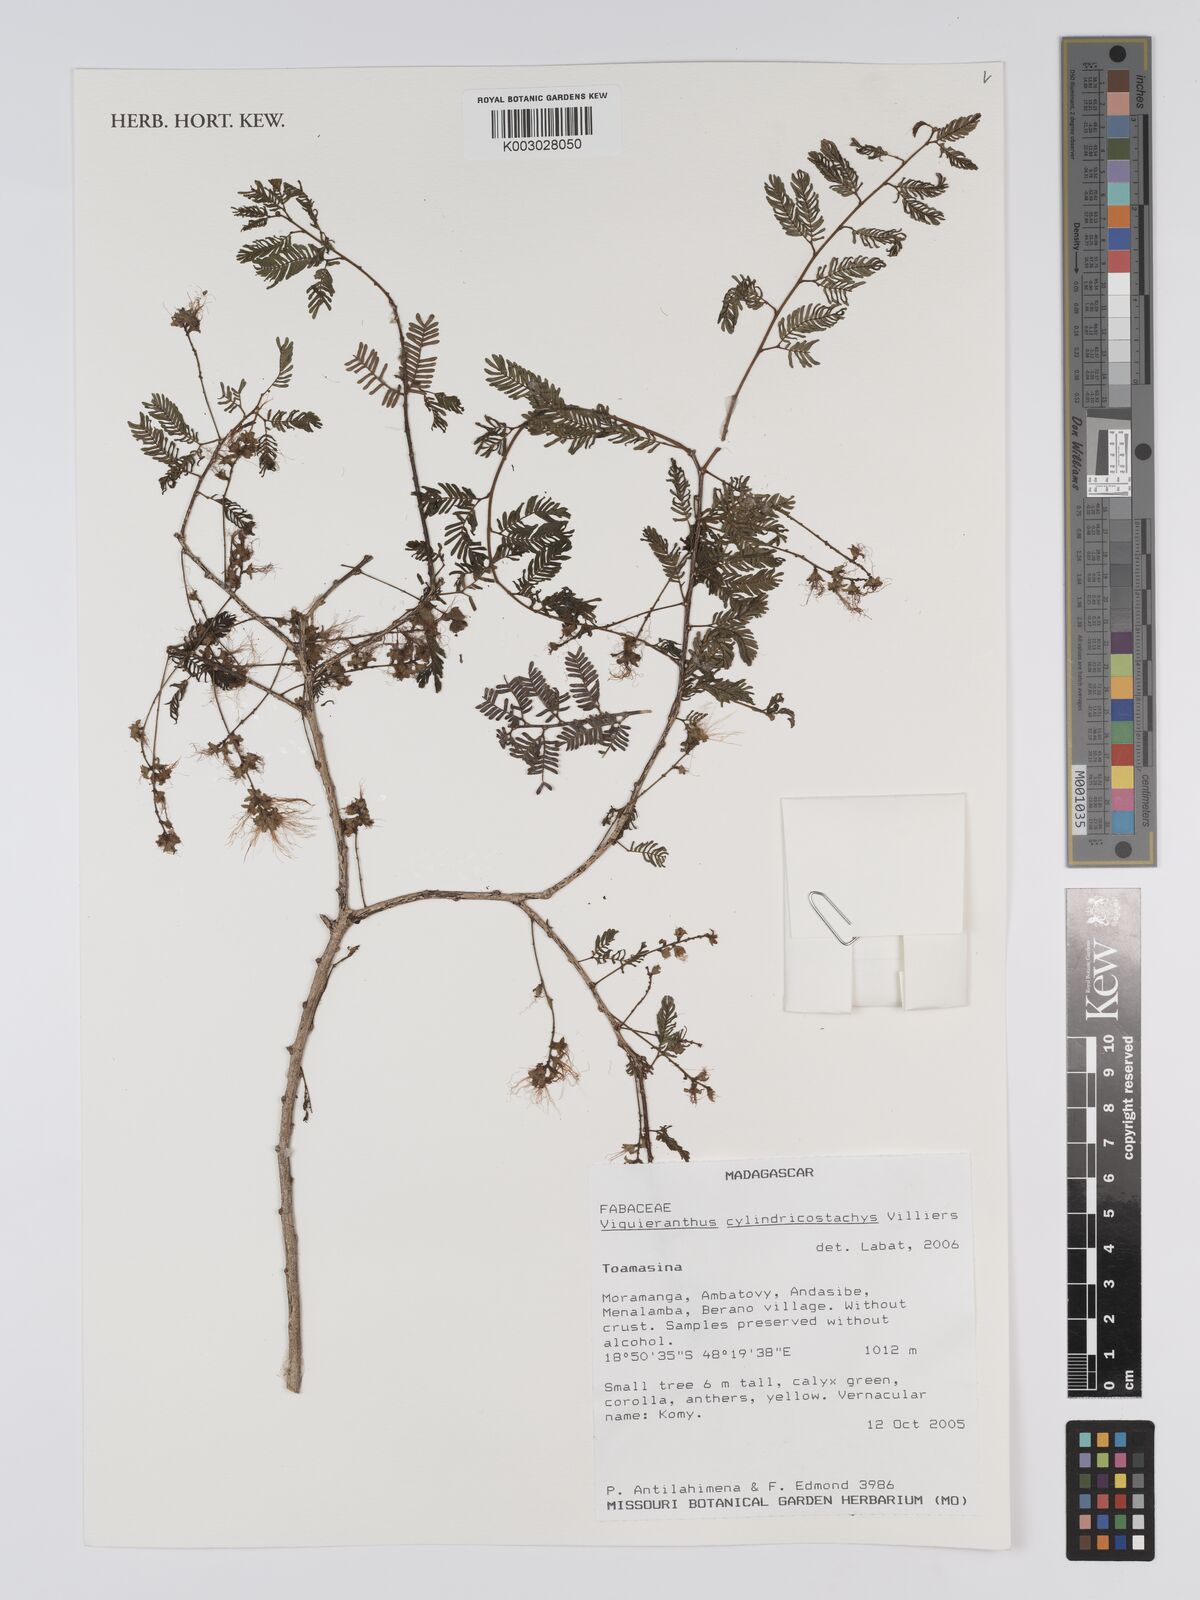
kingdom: Plantae
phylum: Tracheophyta
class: Magnoliopsida
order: Fabales
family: Fabaceae
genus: Viguieranthus
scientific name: Viguieranthus cylindricostachys
